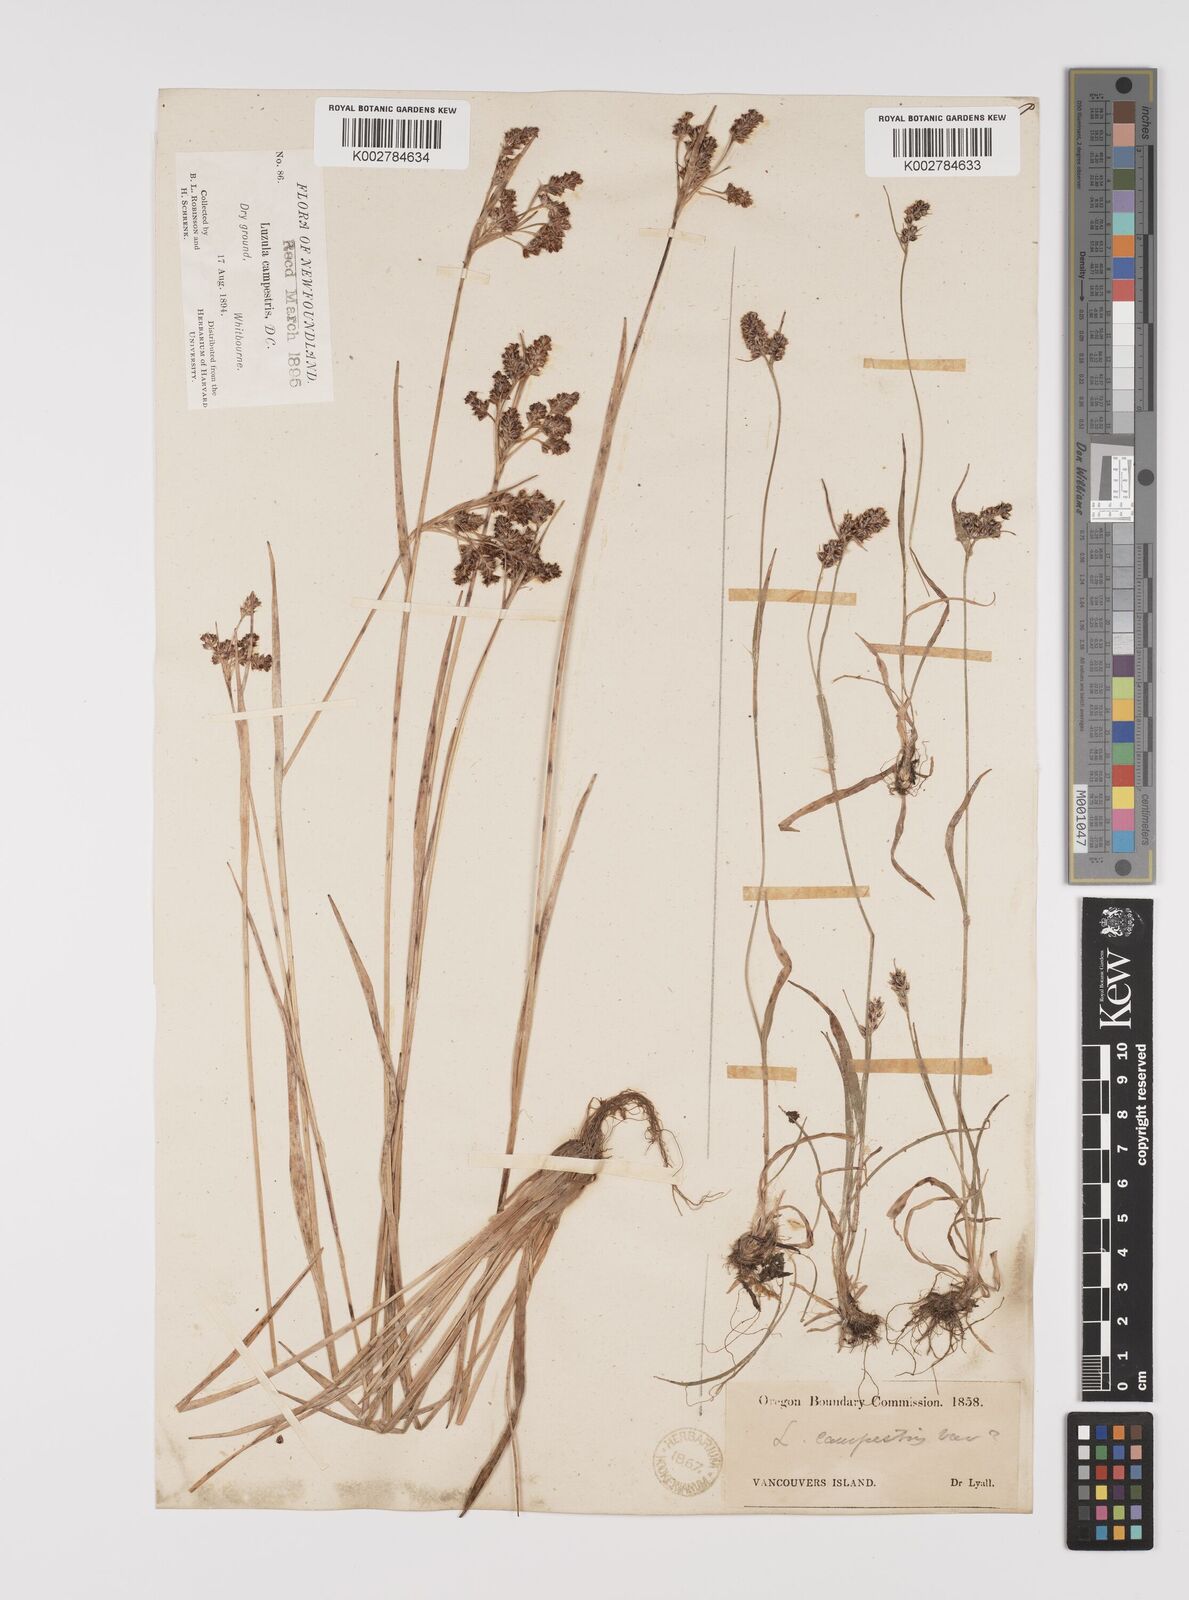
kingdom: Plantae
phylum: Tracheophyta
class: Liliopsida
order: Poales
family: Juncaceae
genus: Luzula
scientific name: Luzula campestris
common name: Field wood-rush
